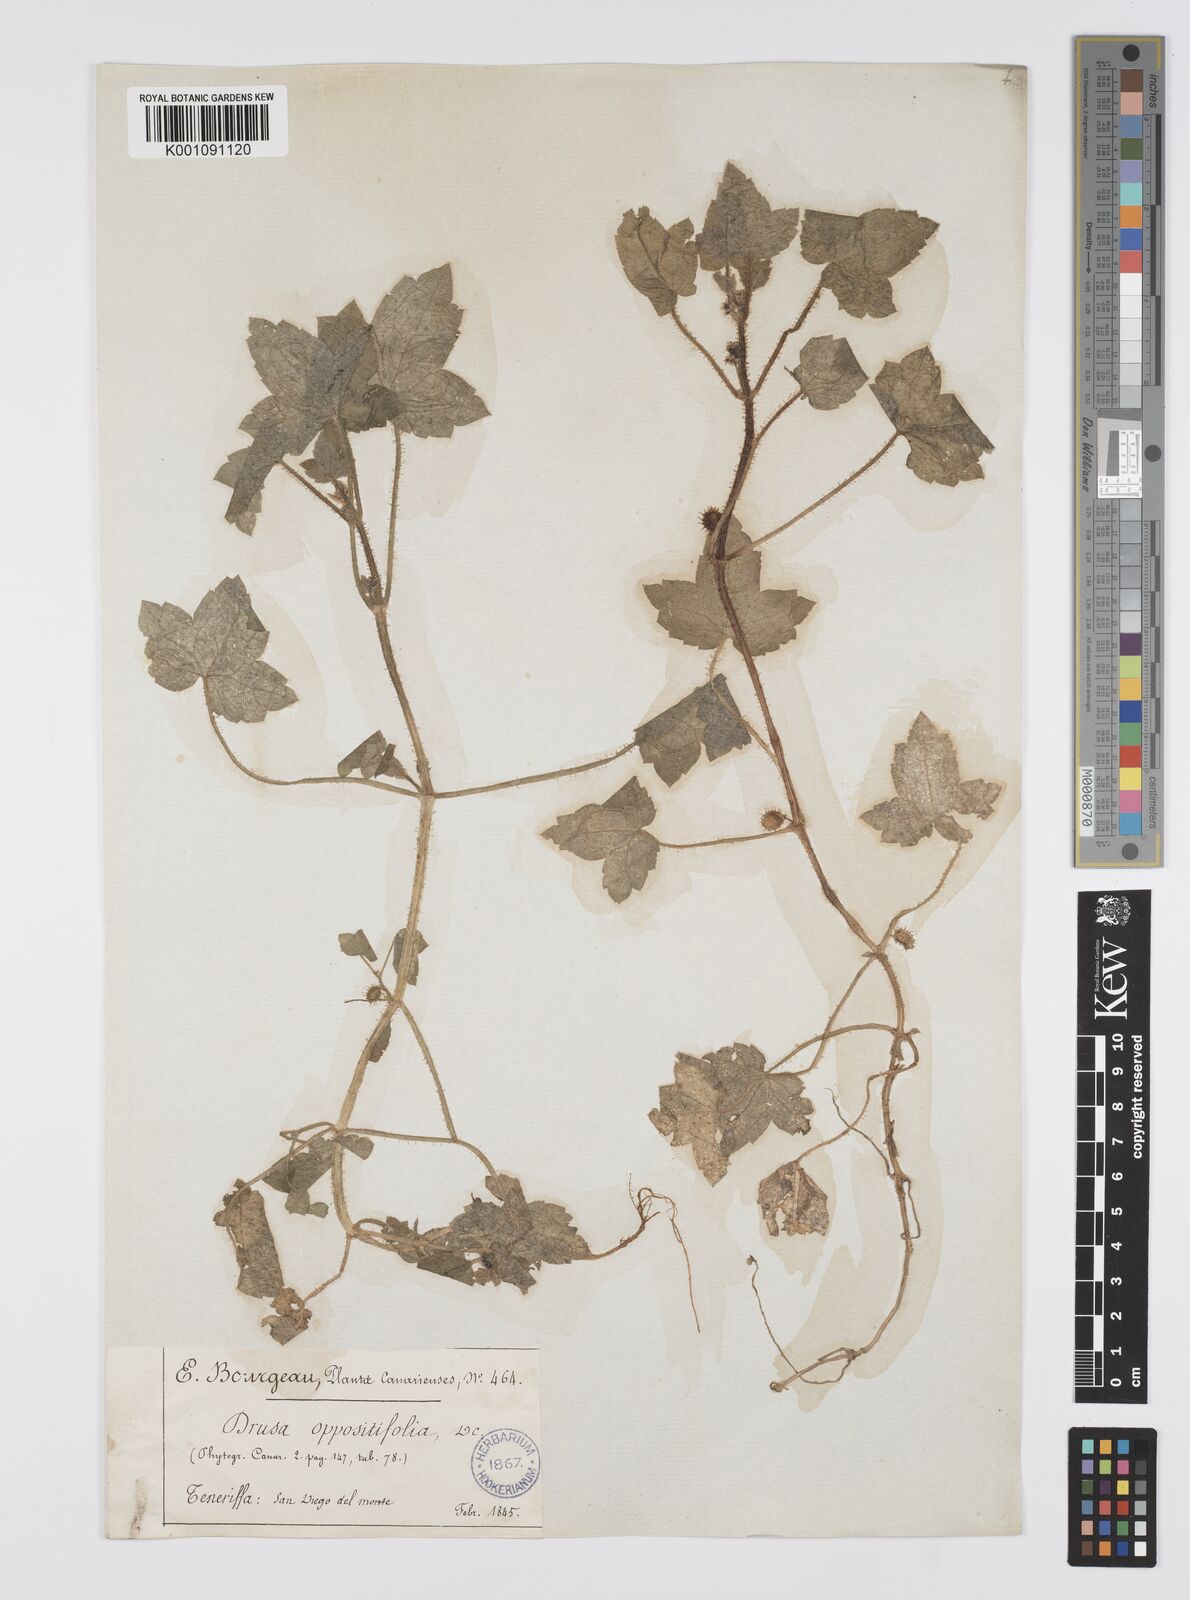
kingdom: Plantae
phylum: Tracheophyta
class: Magnoliopsida
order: Apiales
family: Apiaceae
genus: Drusa
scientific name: Drusa glandulosa
